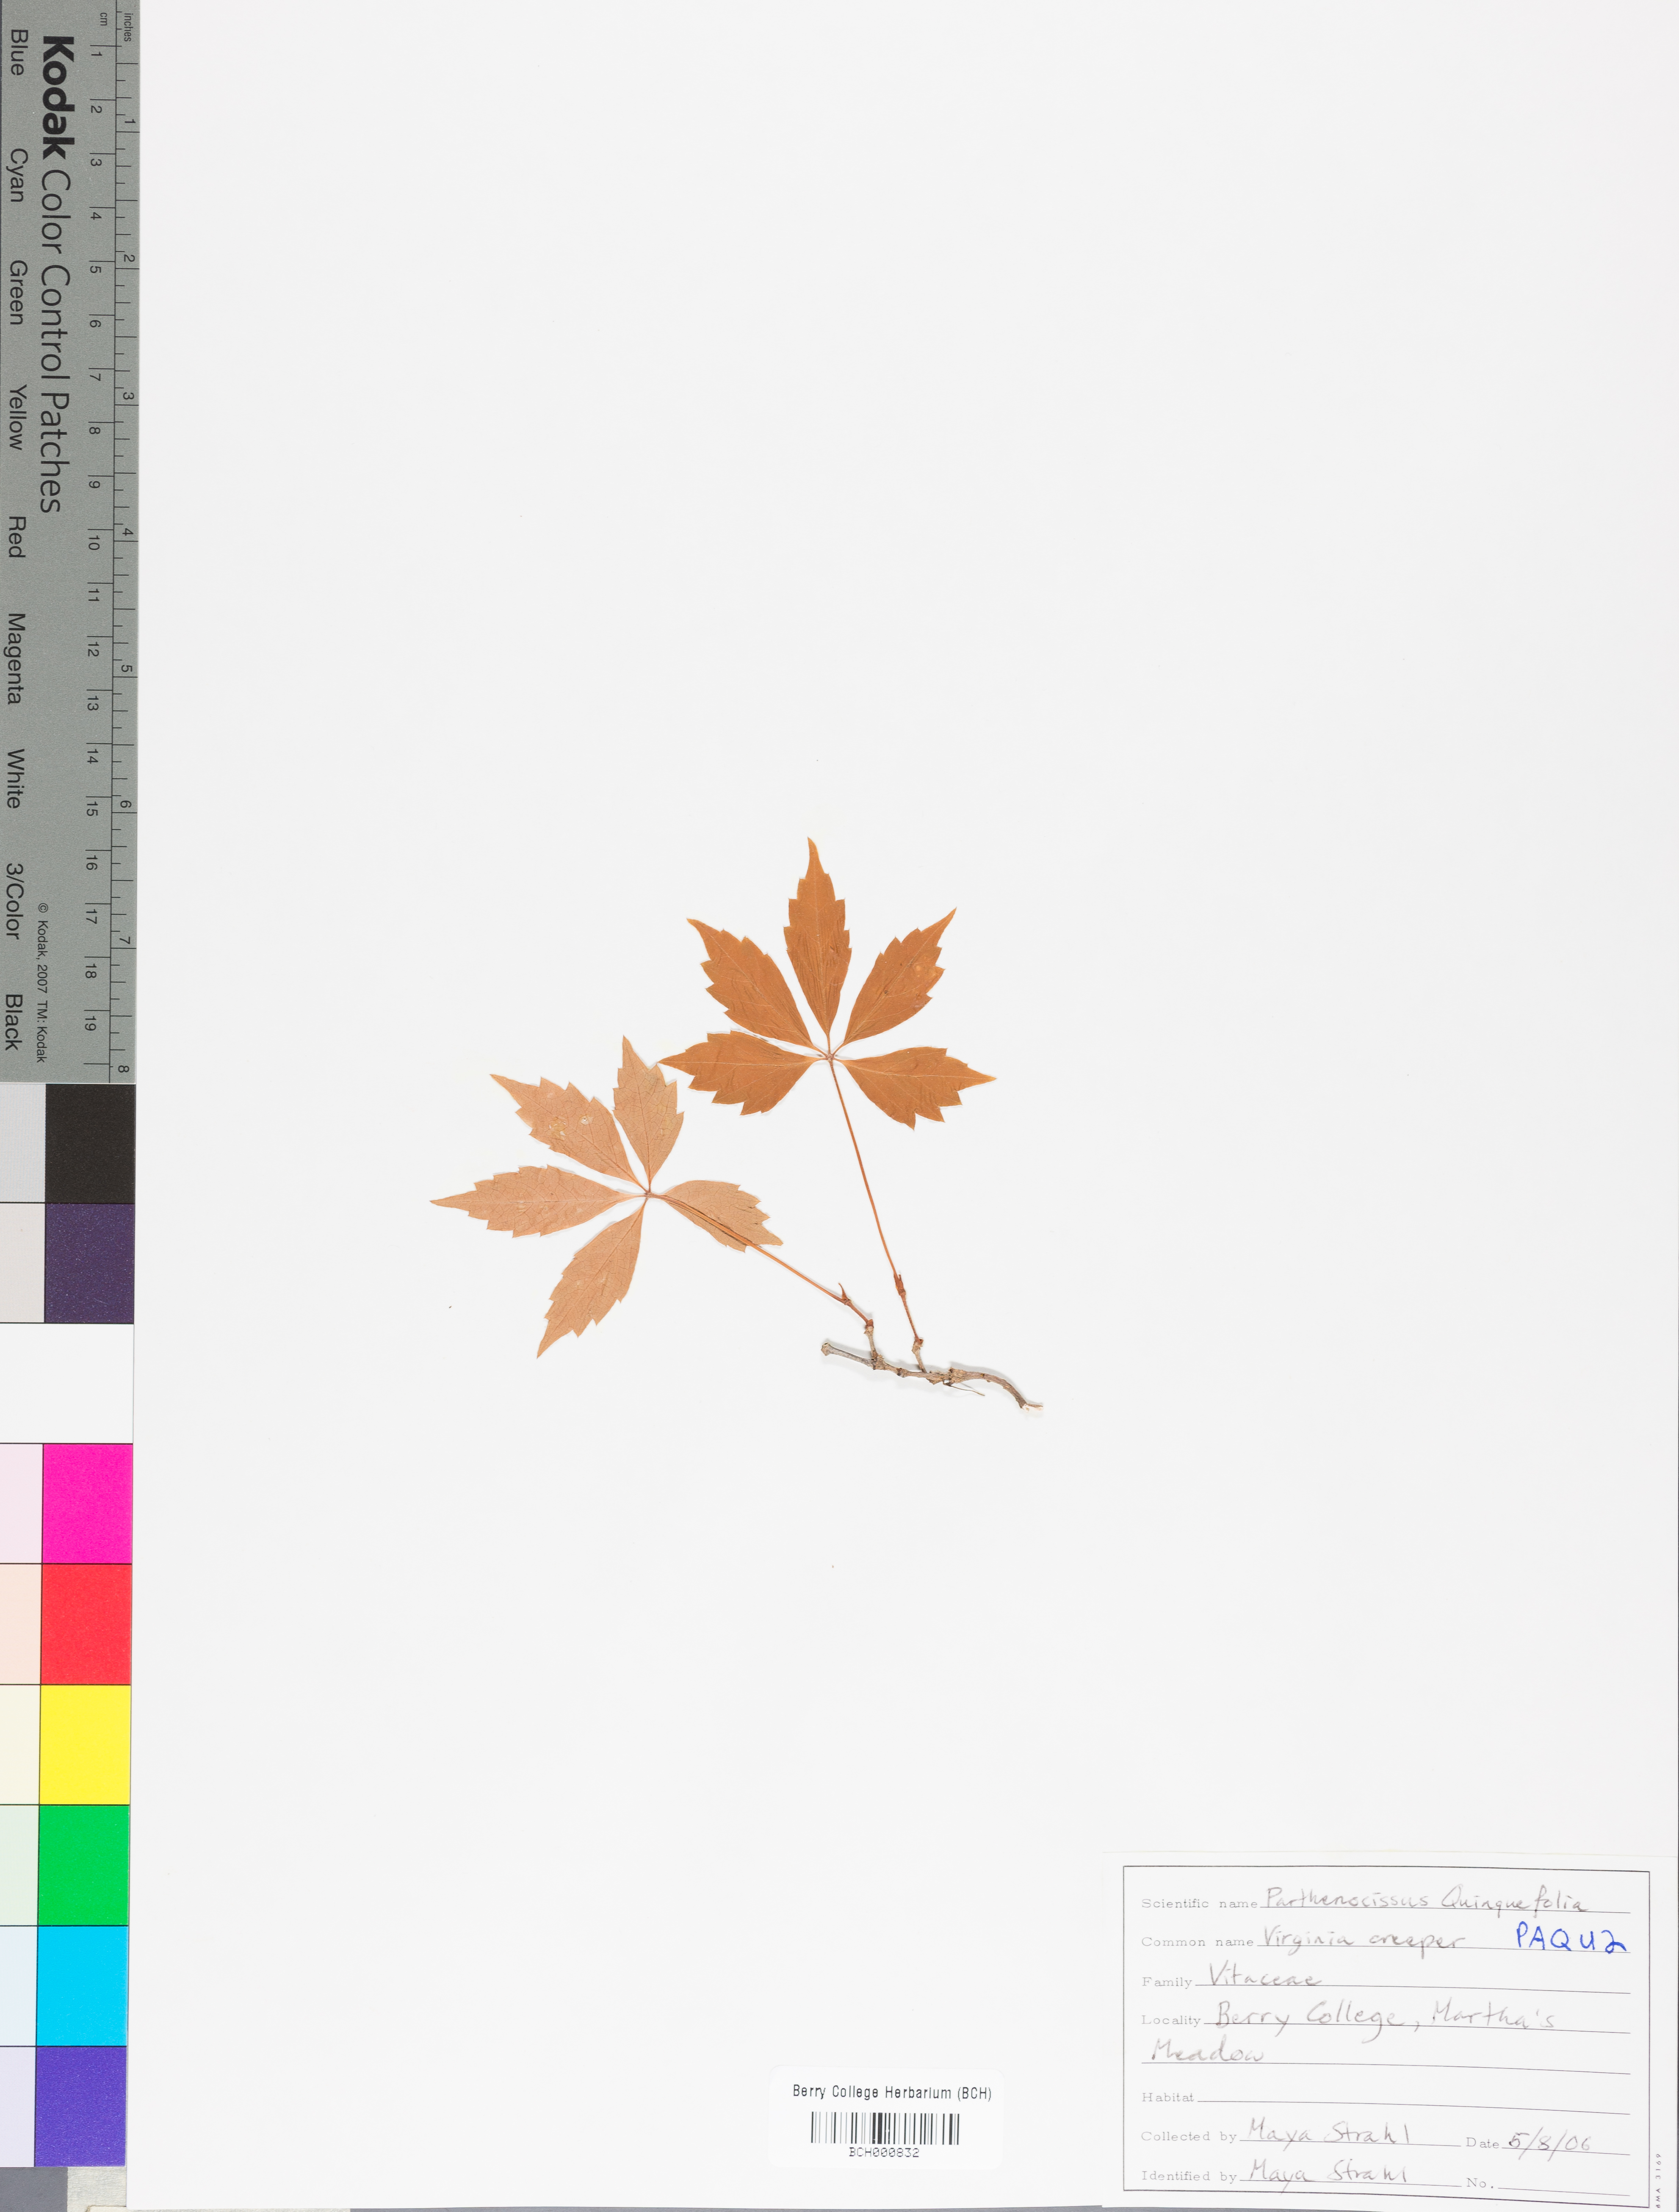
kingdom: Plantae
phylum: Tracheophyta
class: Magnoliopsida
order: Vitales
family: Vitaceae
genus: Parthenocissus
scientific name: Parthenocissus quinquefolia
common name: Virginia-creeper
